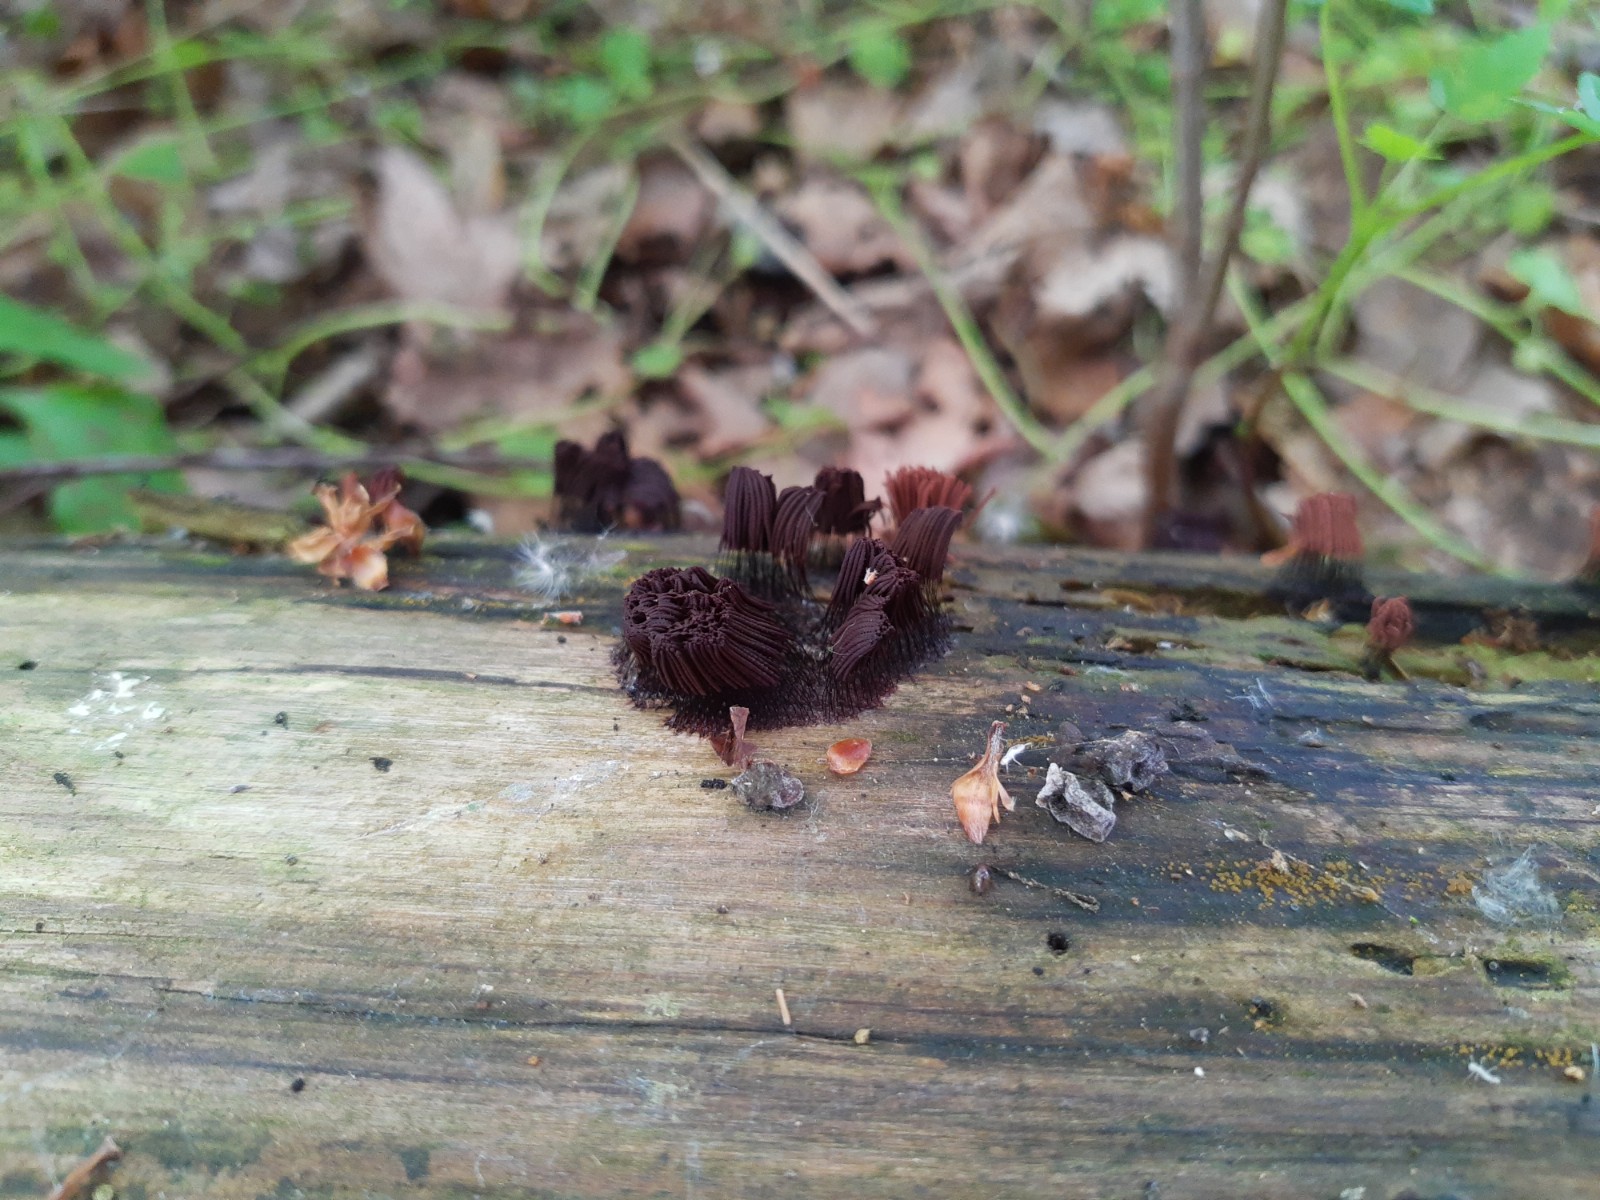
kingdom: Protozoa
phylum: Mycetozoa
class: Myxomycetes
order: Stemonitidales
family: Stemonitidaceae
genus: Stemonitis
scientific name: Stemonitis axifera
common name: rødbrun støvkølle
